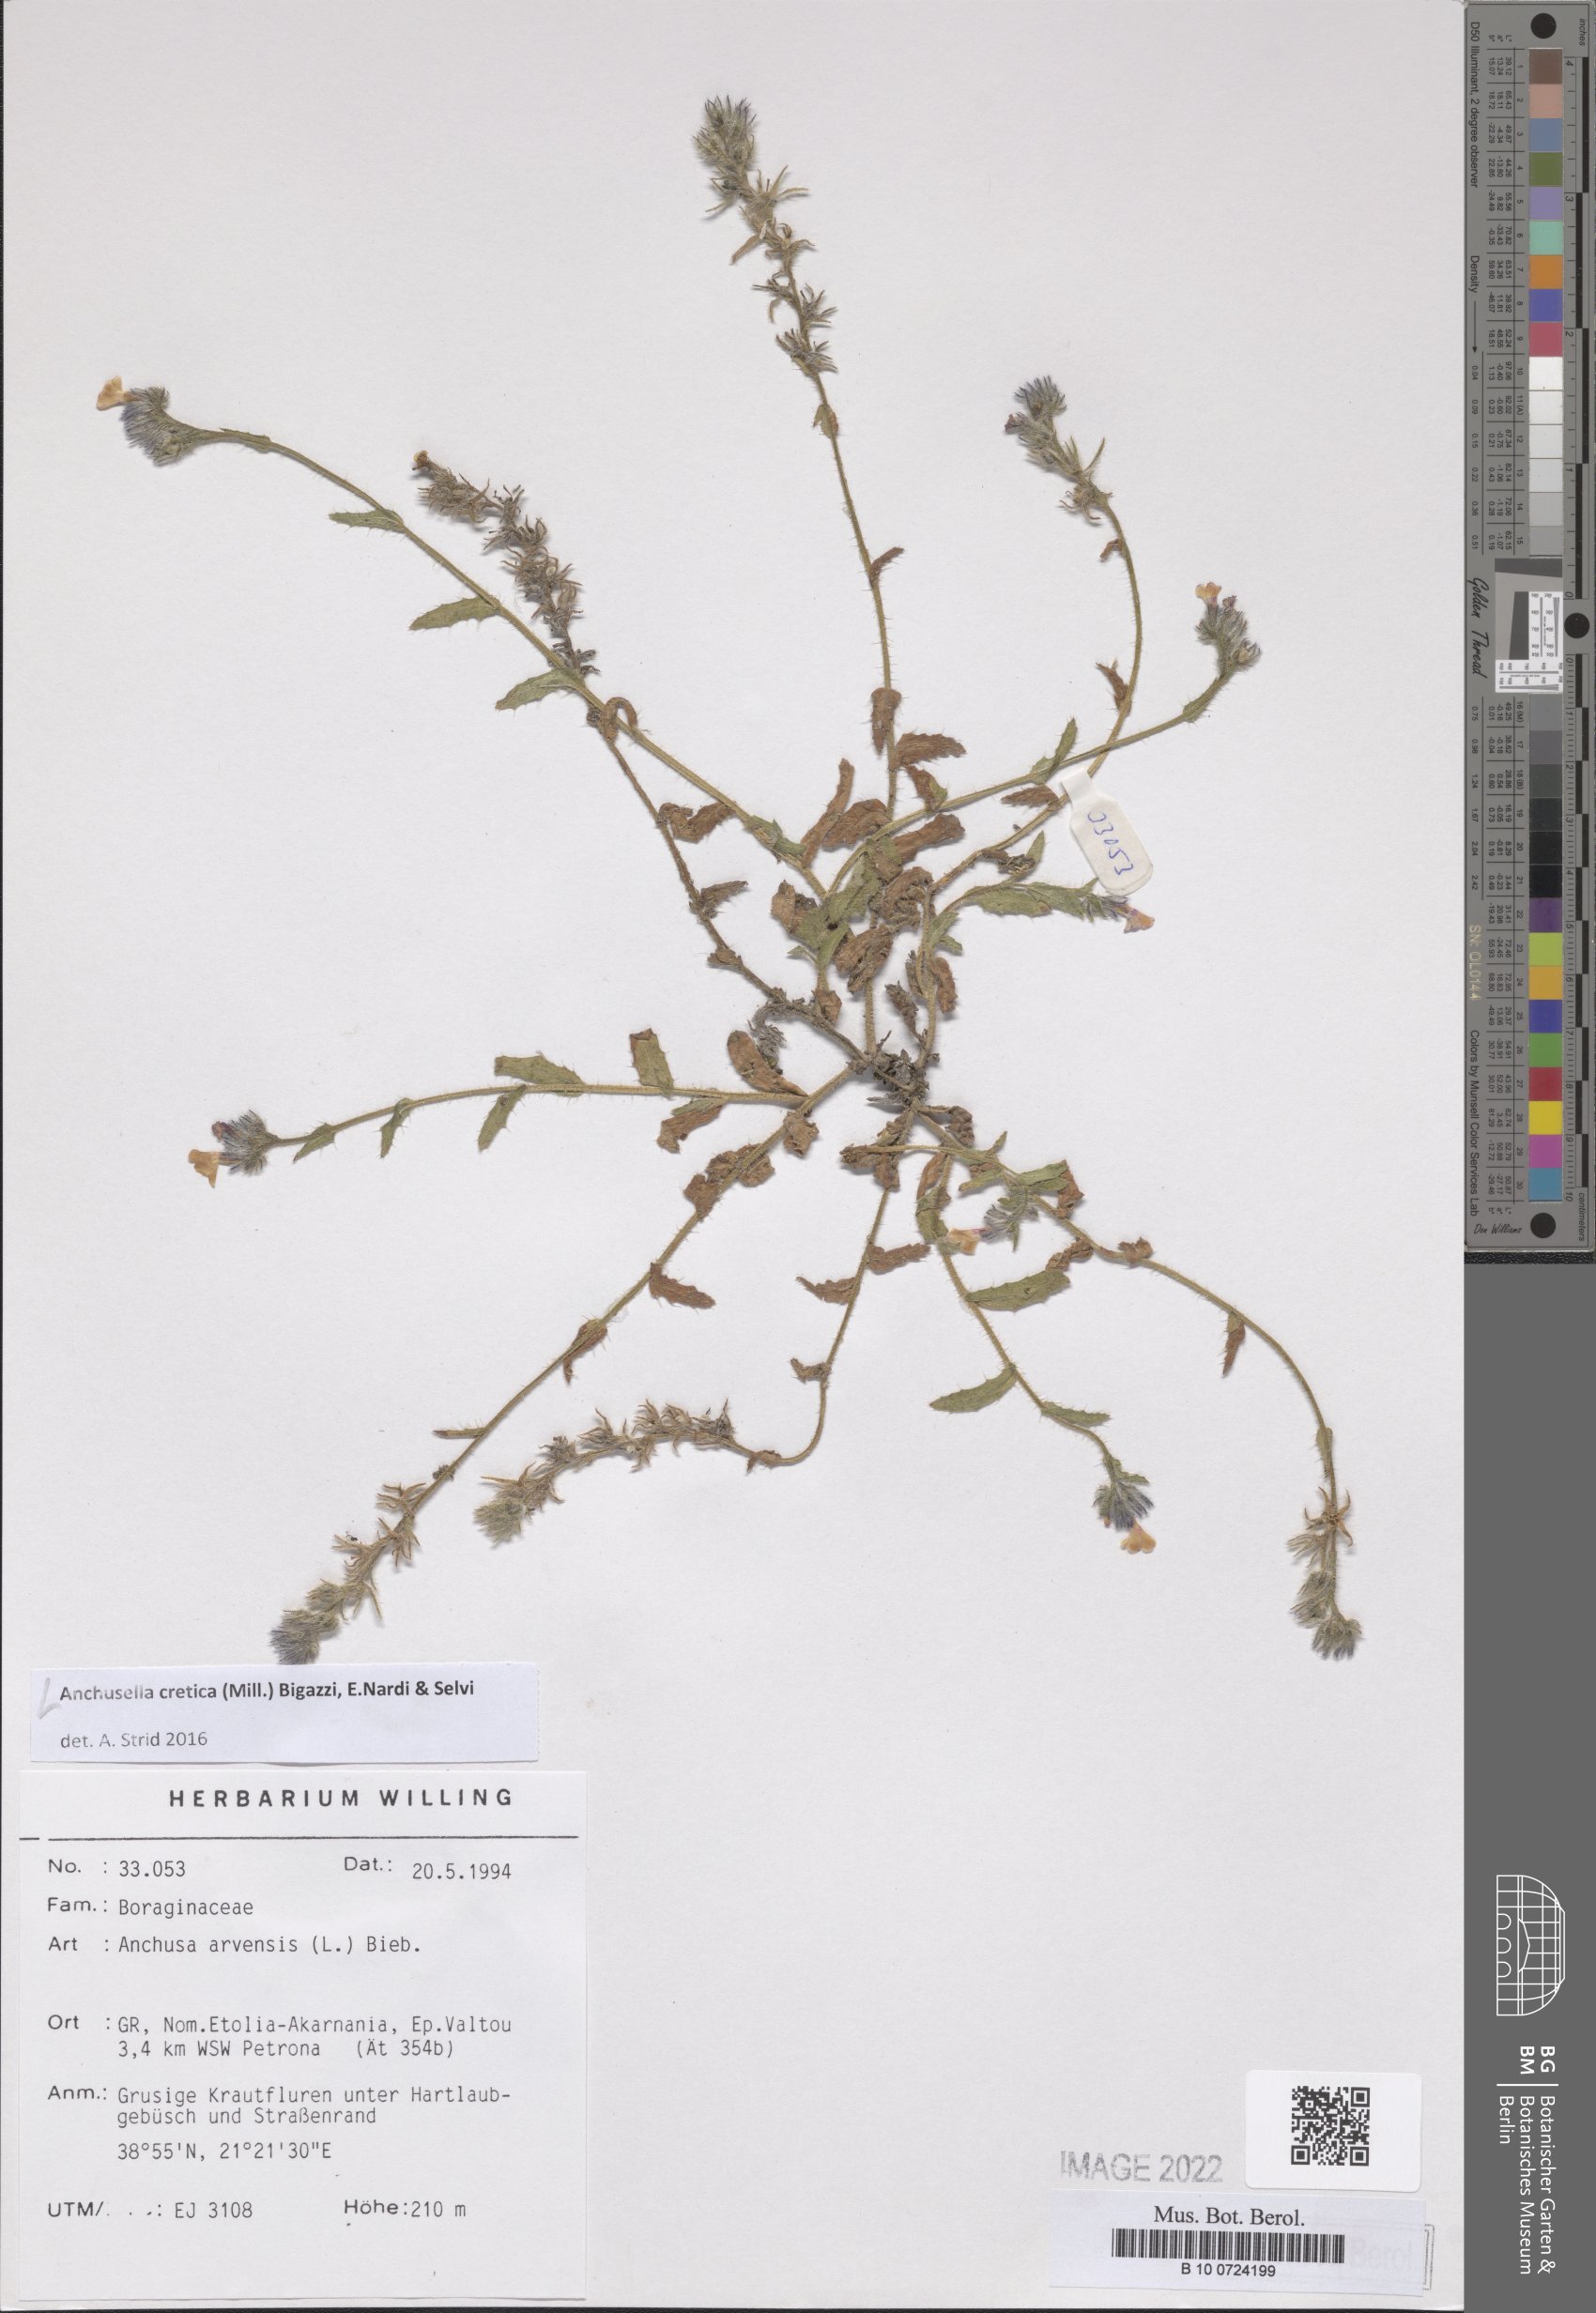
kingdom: Plantae
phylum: Tracheophyta
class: Magnoliopsida
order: Boraginales
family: Boraginaceae
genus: Anchusella
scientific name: Anchusella cretica
